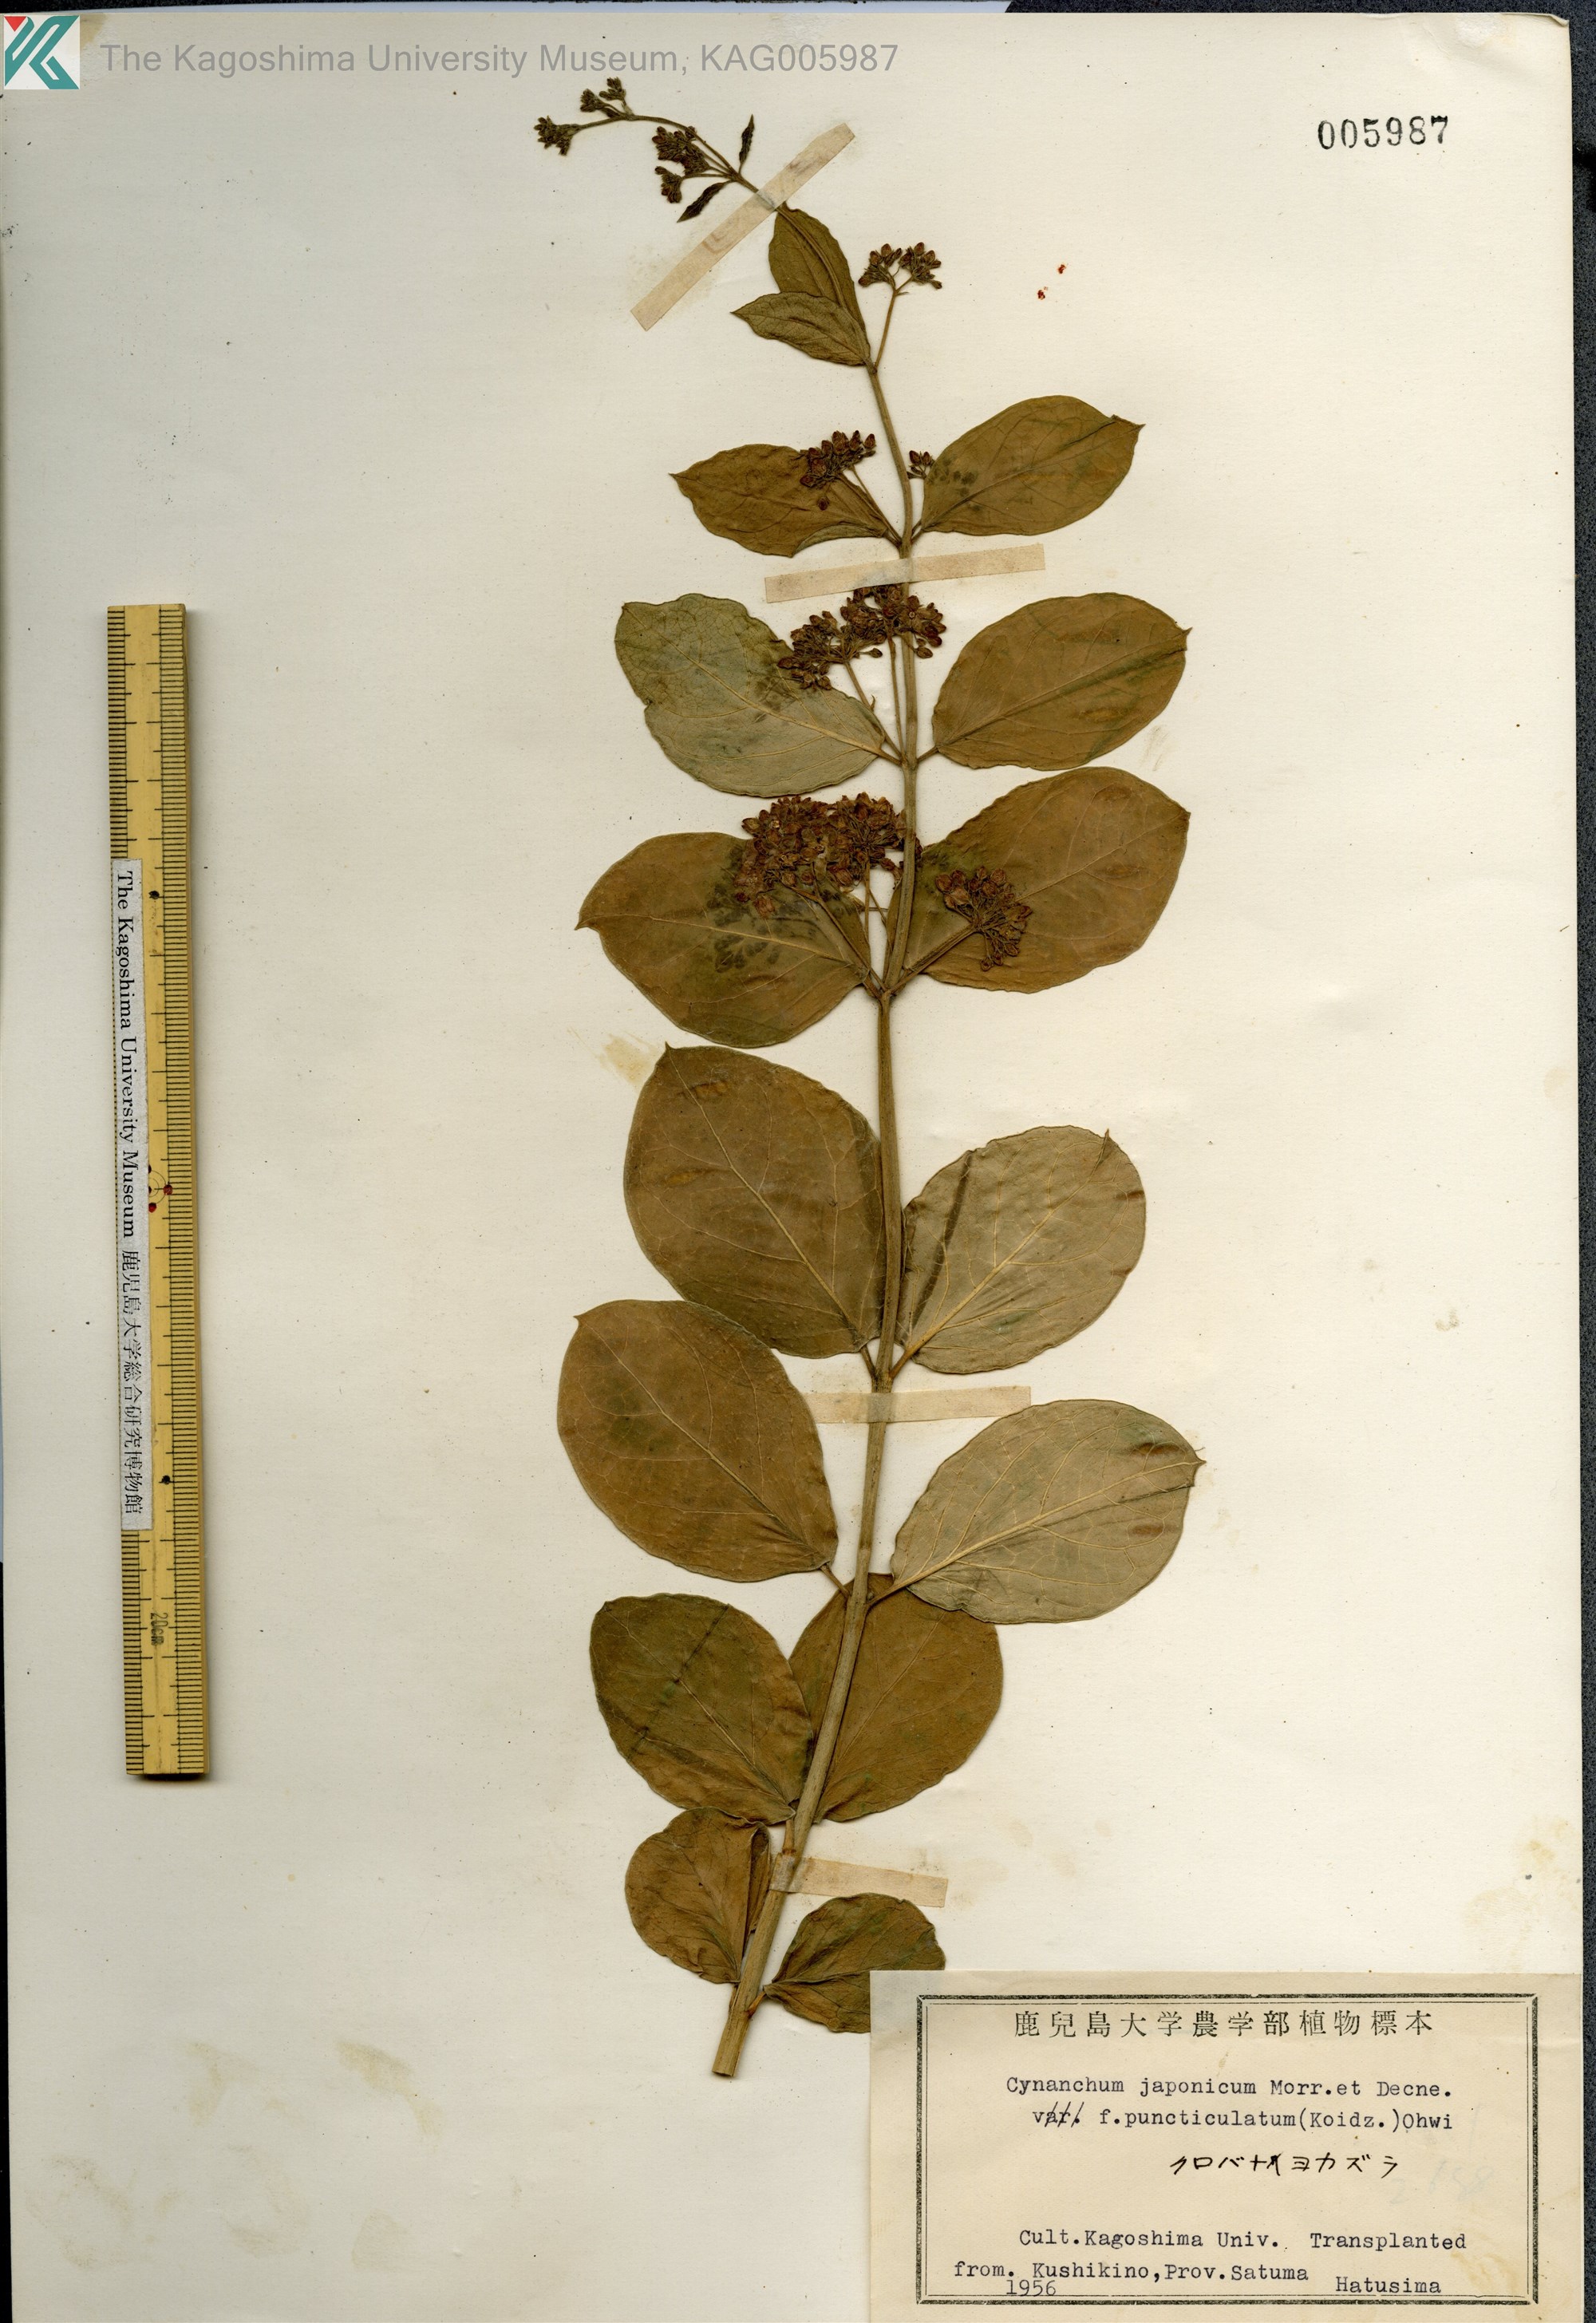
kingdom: Plantae
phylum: Tracheophyta
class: Magnoliopsida
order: Gentianales
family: Apocynaceae
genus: Vincetoxicum
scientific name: Vincetoxicum japonicum
